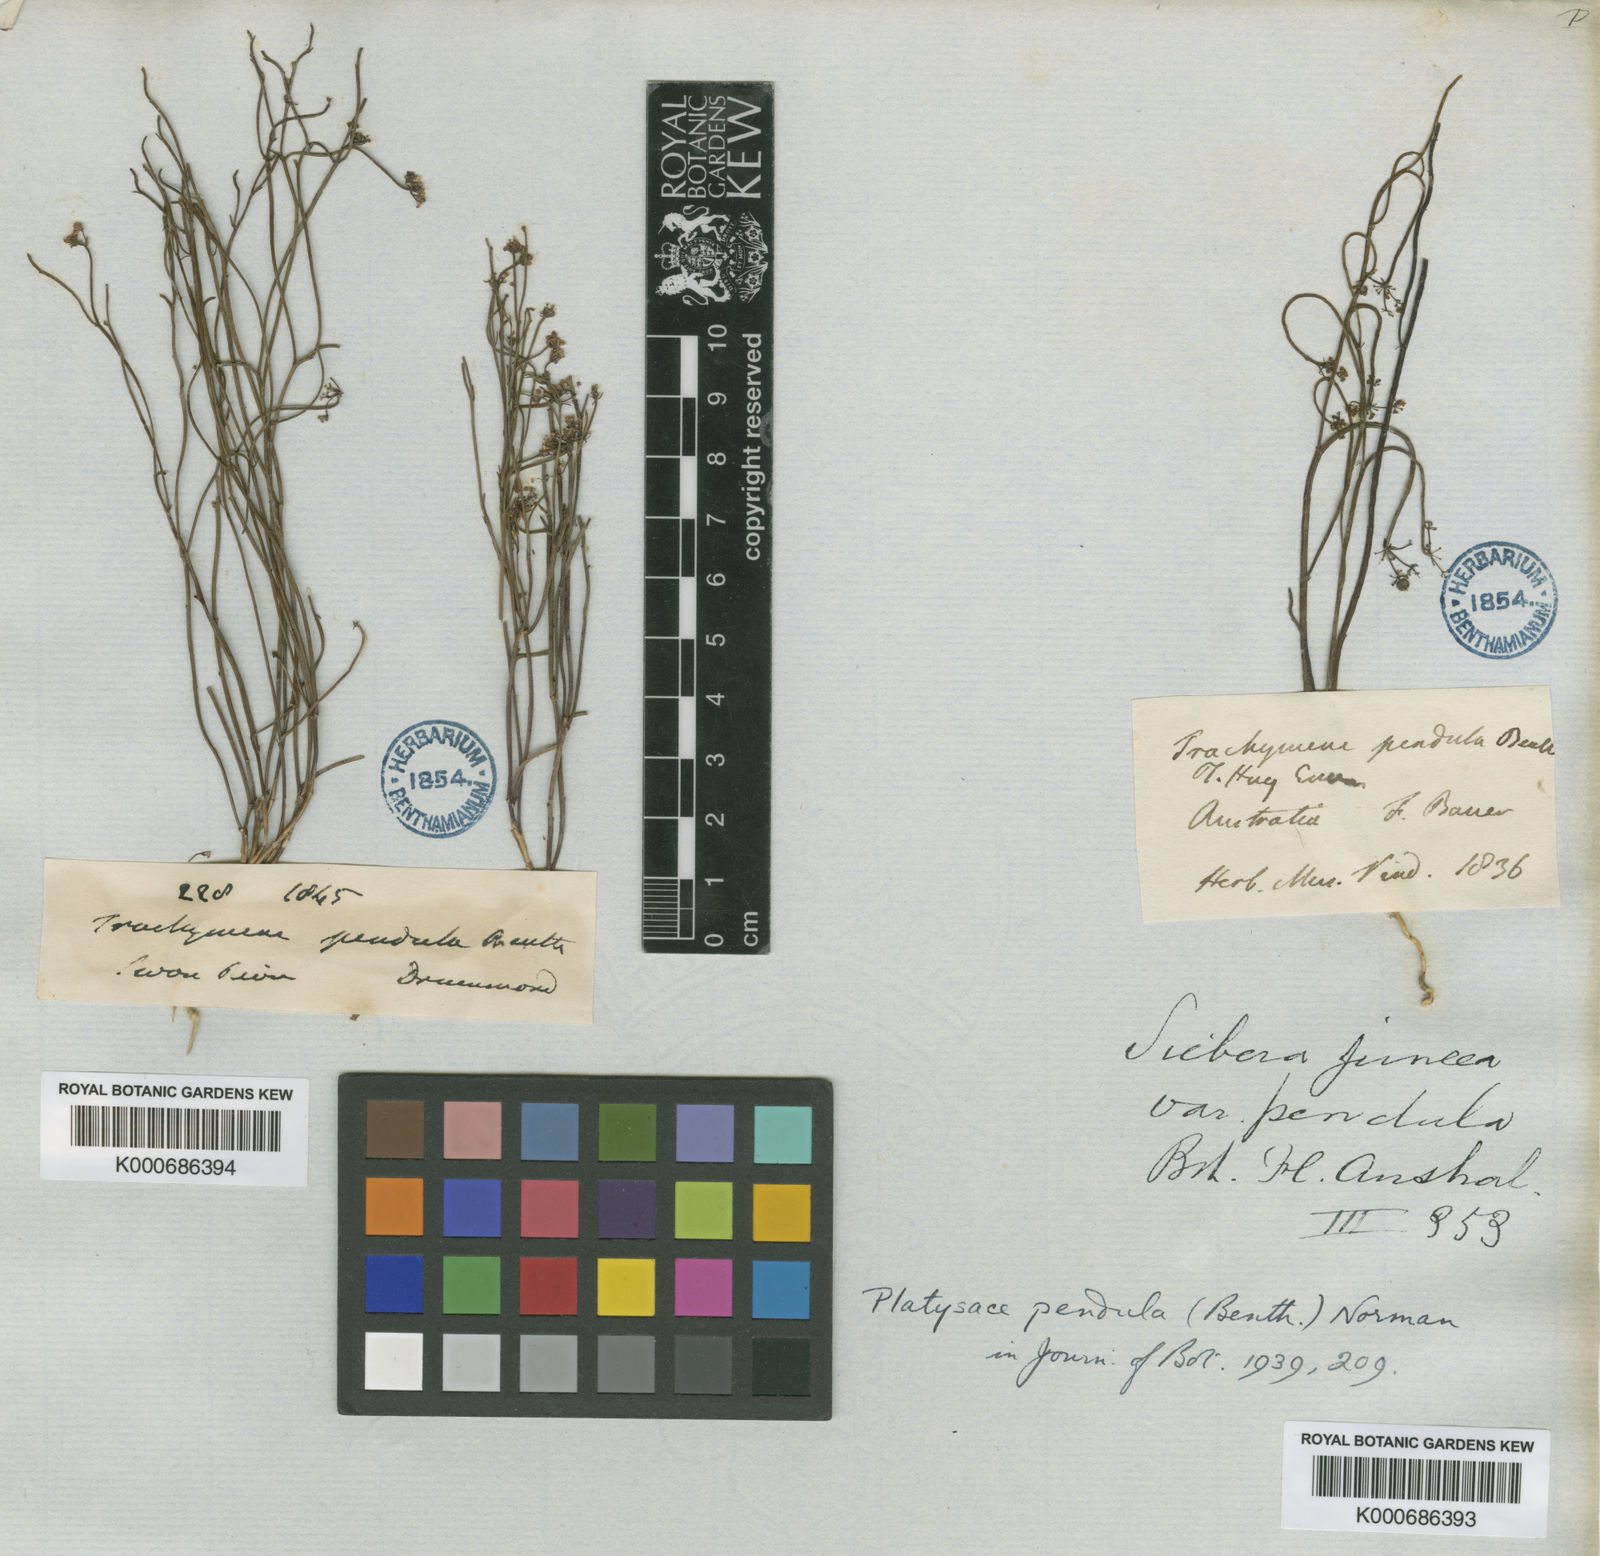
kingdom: Plantae
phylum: Tracheophyta
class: Magnoliopsida
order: Apiales
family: Apiaceae
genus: Platysace
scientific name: Platysace pendula
